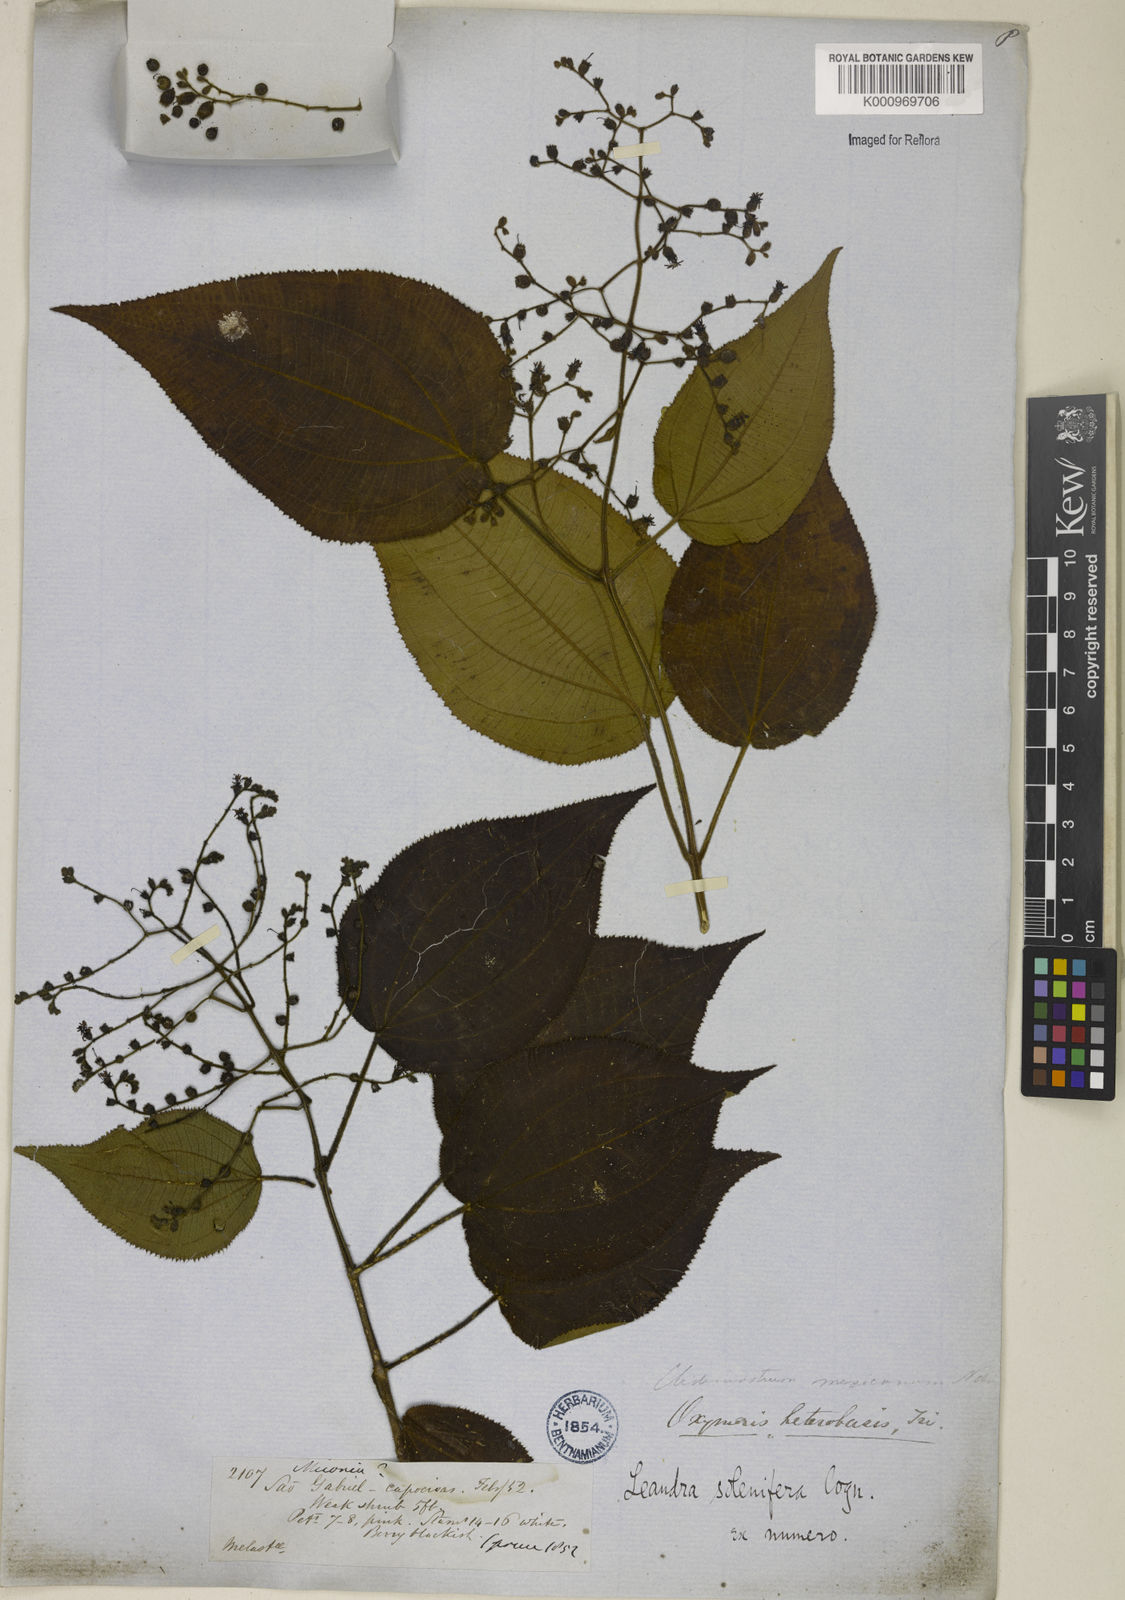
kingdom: Plantae
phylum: Tracheophyta
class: Magnoliopsida
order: Myrtales
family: Melastomataceae
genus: Miconia
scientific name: Miconia solenifera
